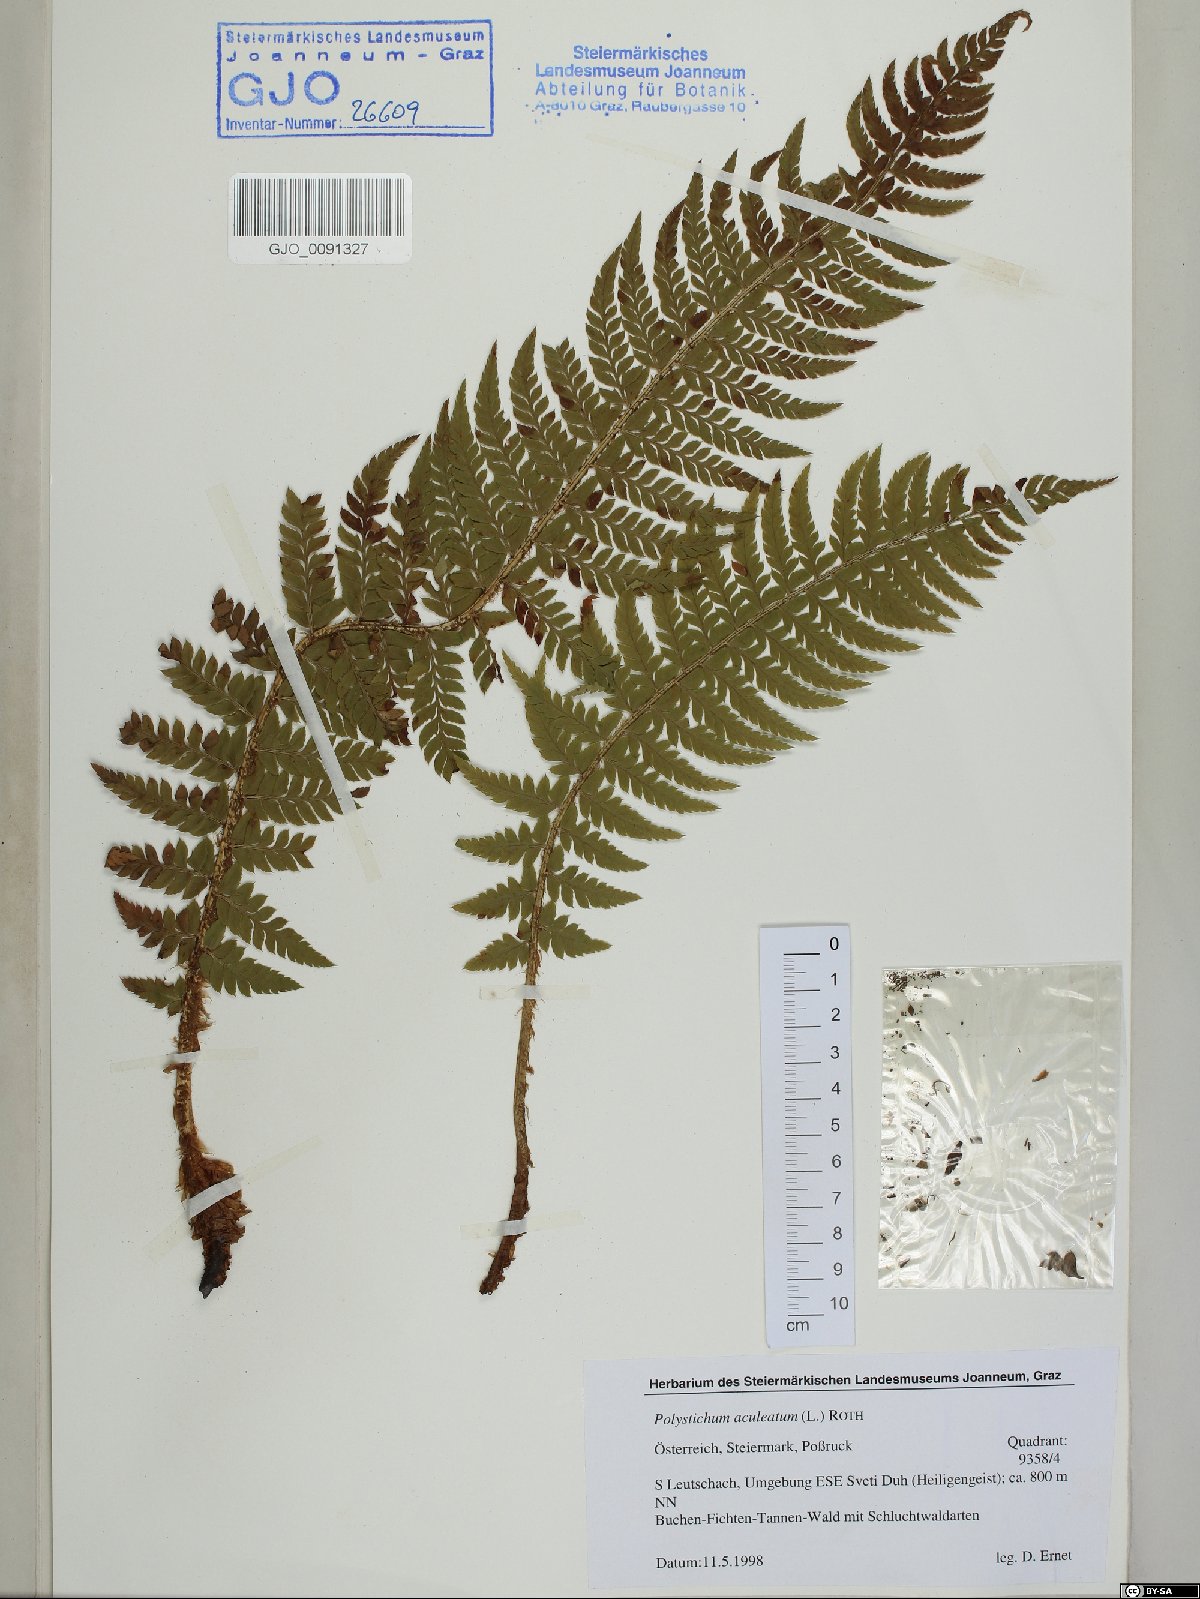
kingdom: Plantae
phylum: Tracheophyta
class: Polypodiopsida
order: Polypodiales
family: Dryopteridaceae
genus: Polystichum
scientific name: Polystichum aculeatum
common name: Hard shield-fern
